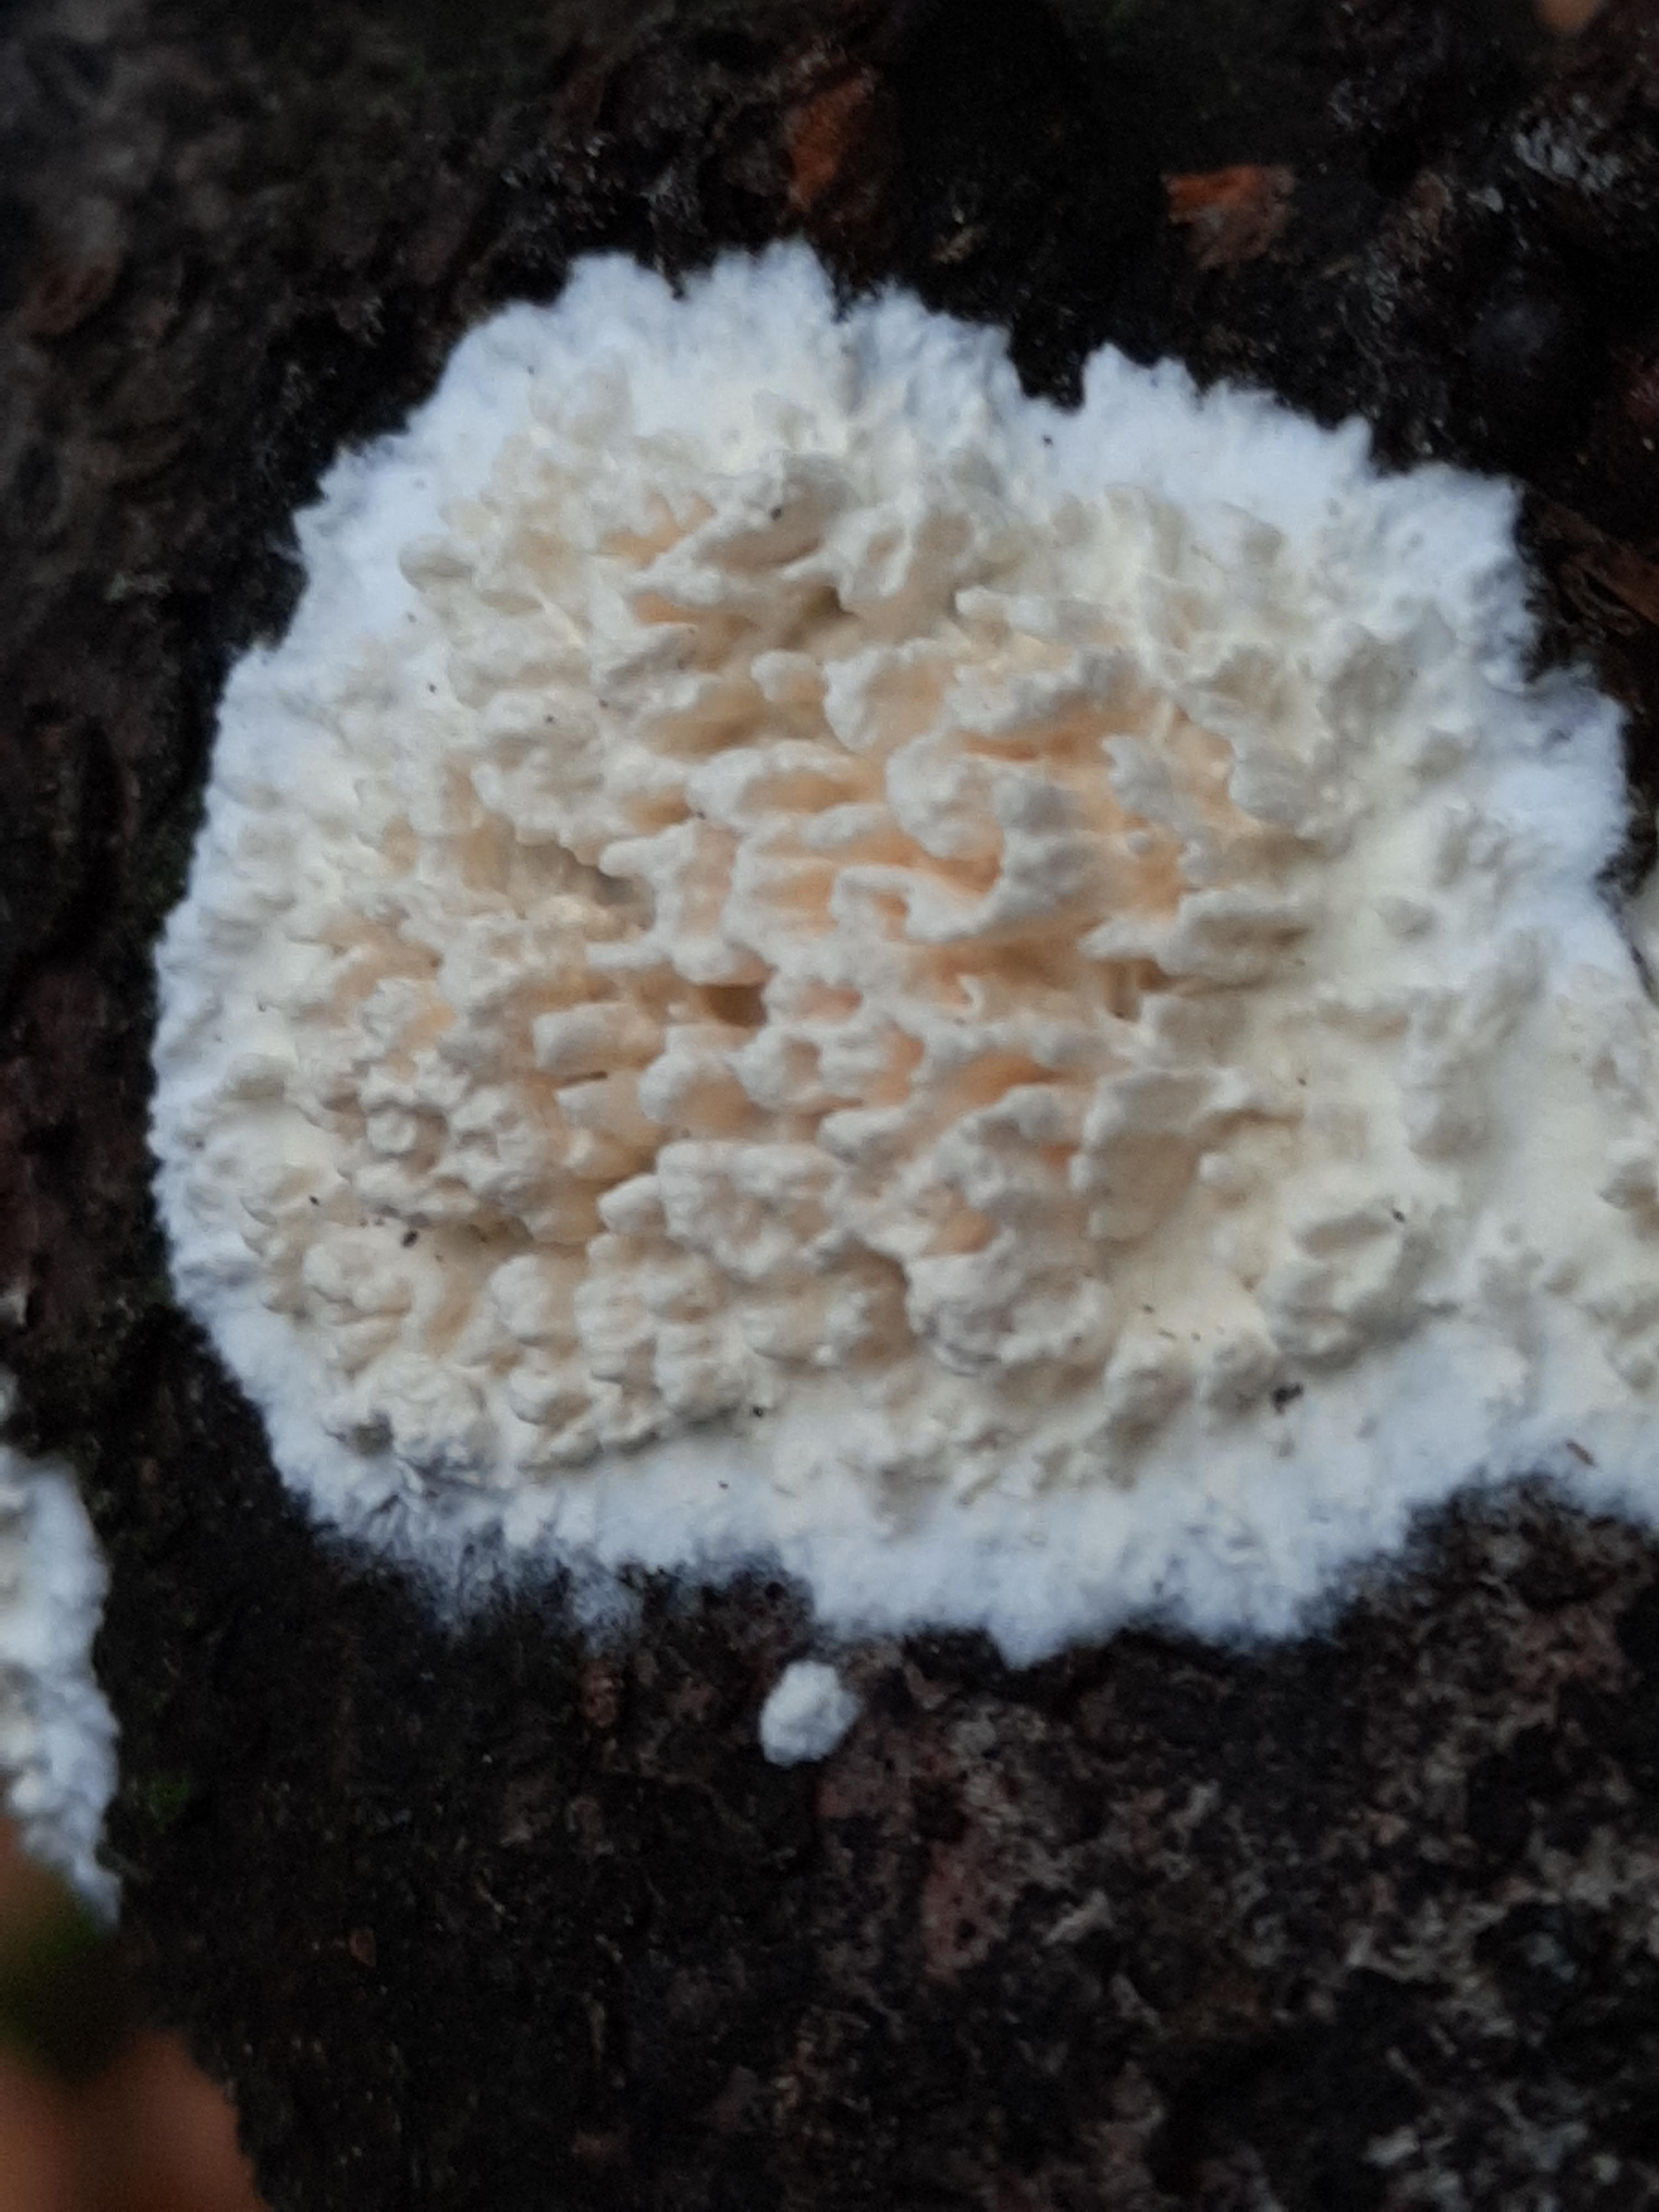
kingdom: Fungi
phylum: Basidiomycota
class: Agaricomycetes
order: Hymenochaetales
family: Schizoporaceae
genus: Xylodon
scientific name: Xylodon radula
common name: grovtandet kalkskind
